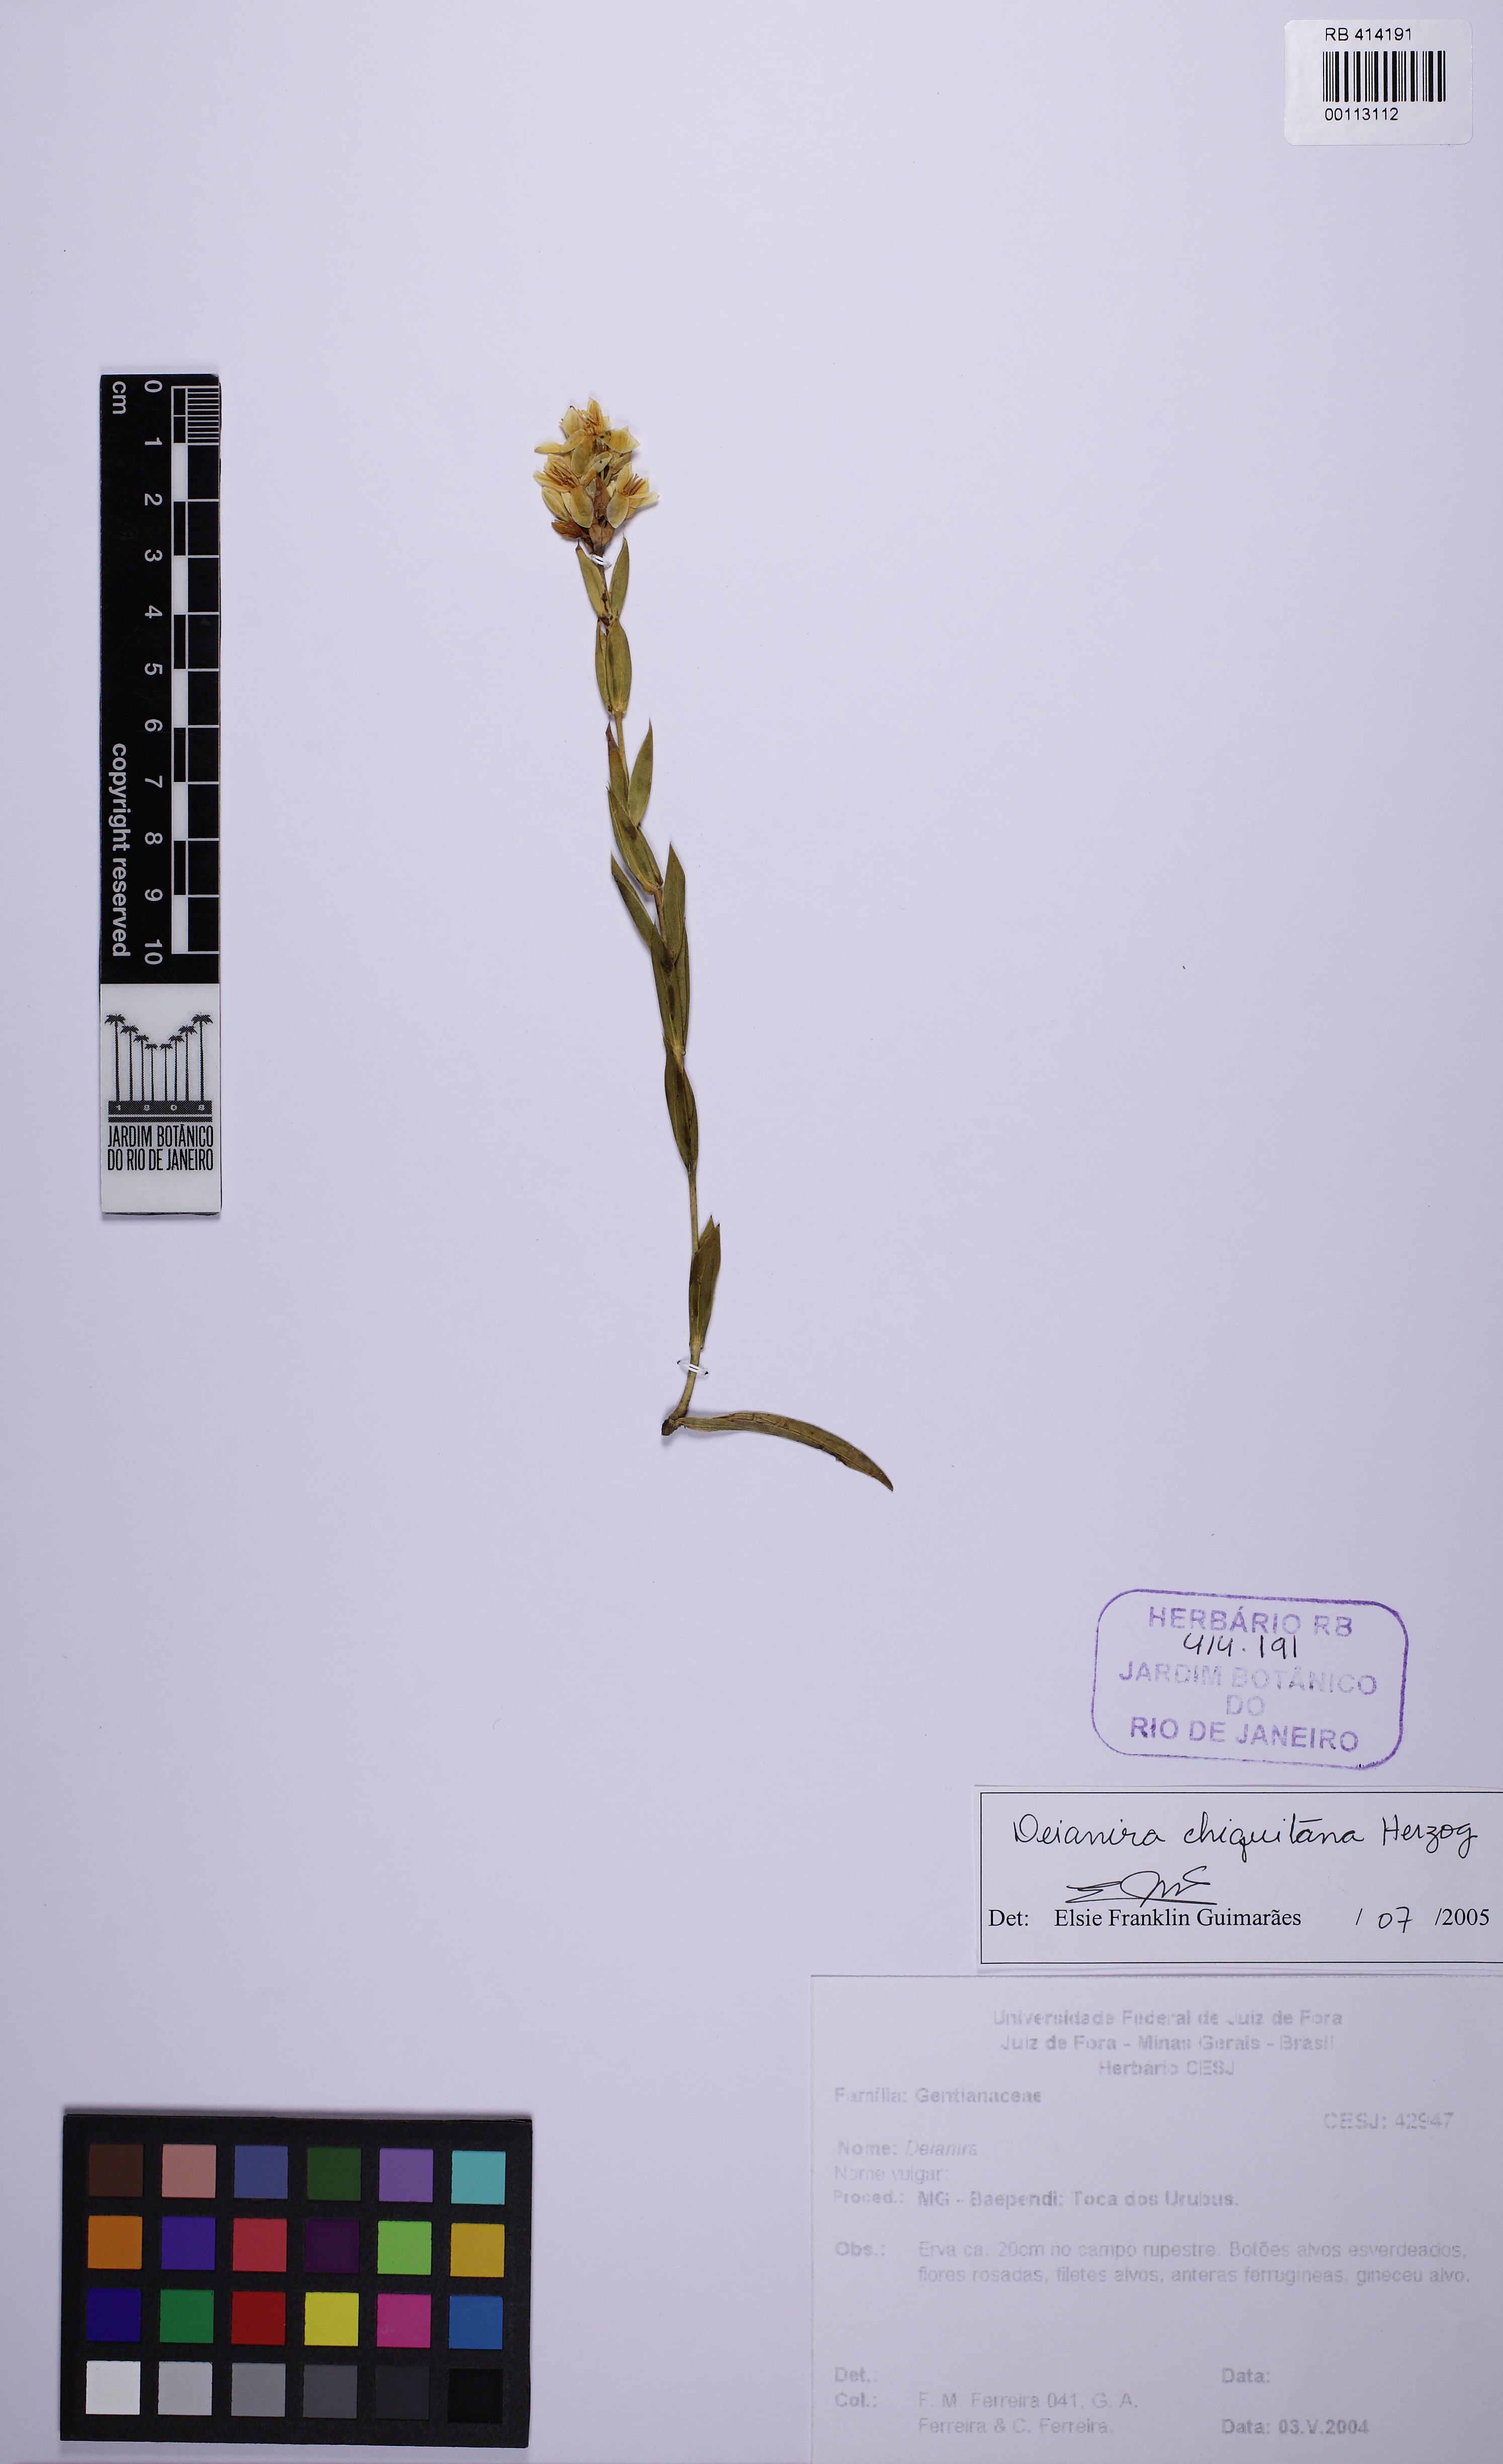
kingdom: Plantae
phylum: Tracheophyta
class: Magnoliopsida
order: Gentianales
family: Gentianaceae
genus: Deianira
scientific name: Deianira chiquitana
